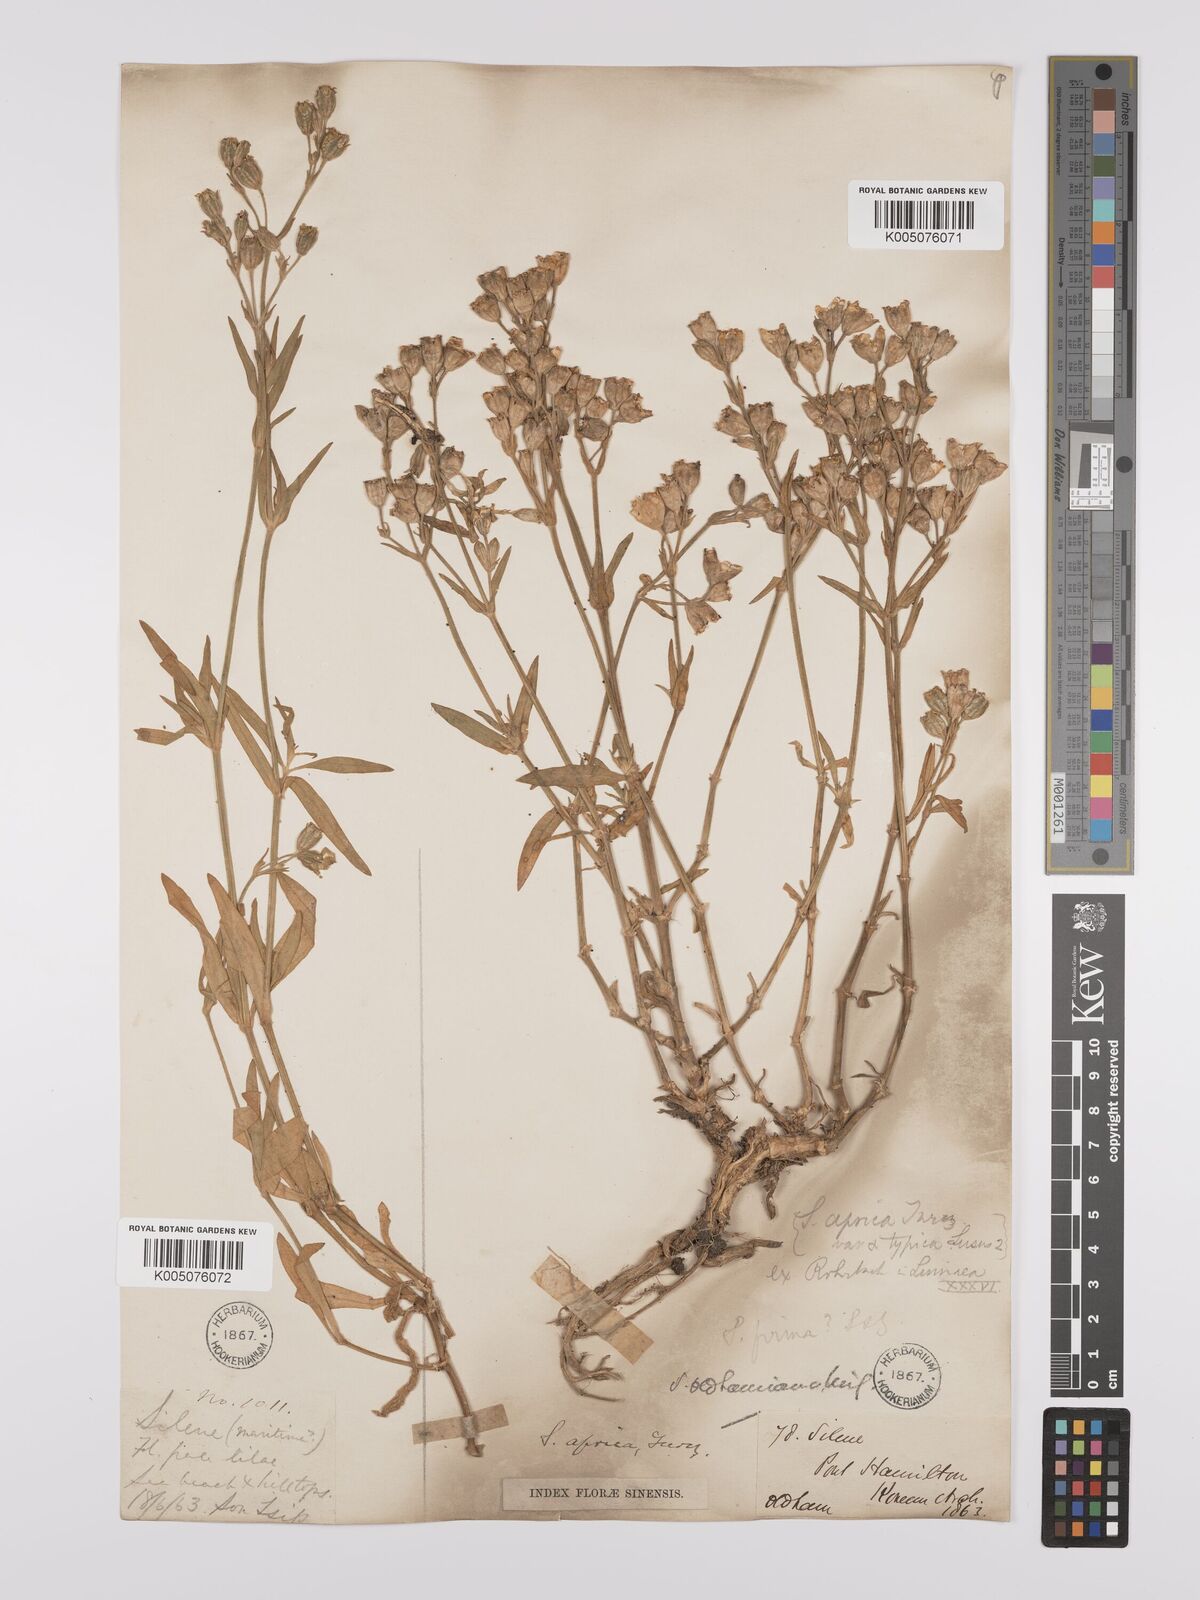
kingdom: Plantae
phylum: Tracheophyta
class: Magnoliopsida
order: Caryophyllales
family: Caryophyllaceae
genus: Silene
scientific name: Silene aprica
